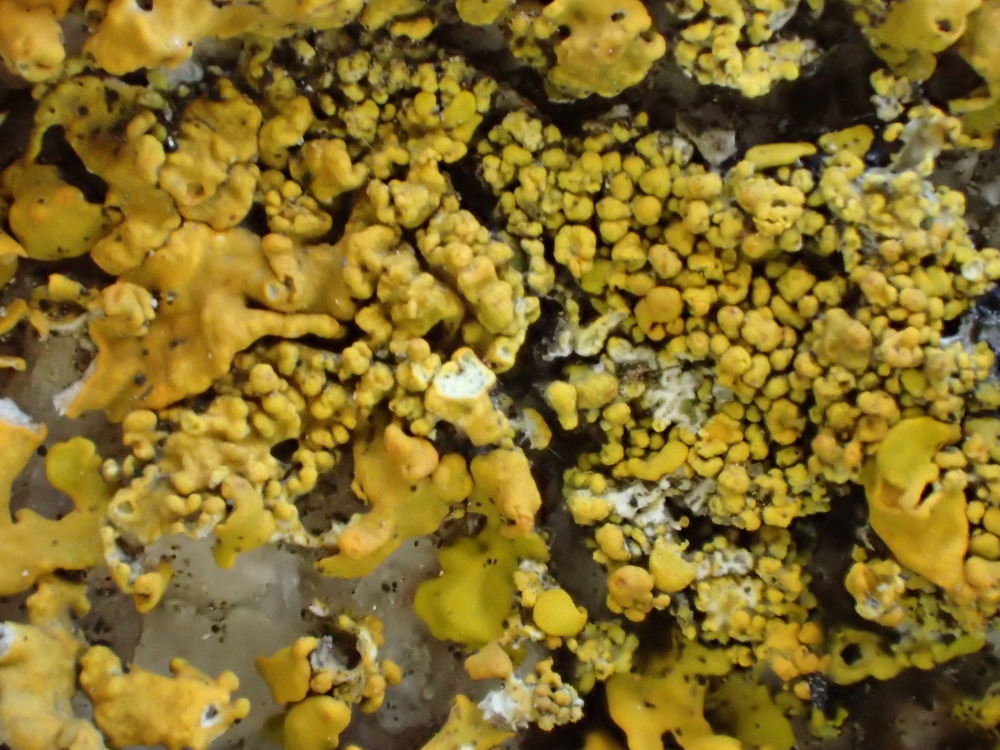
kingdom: Fungi
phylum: Ascomycota
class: Lecanoromycetes
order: Teloschistales
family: Teloschistaceae
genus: Xanthoria
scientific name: Xanthoria calcicola
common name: vortet væggelav
